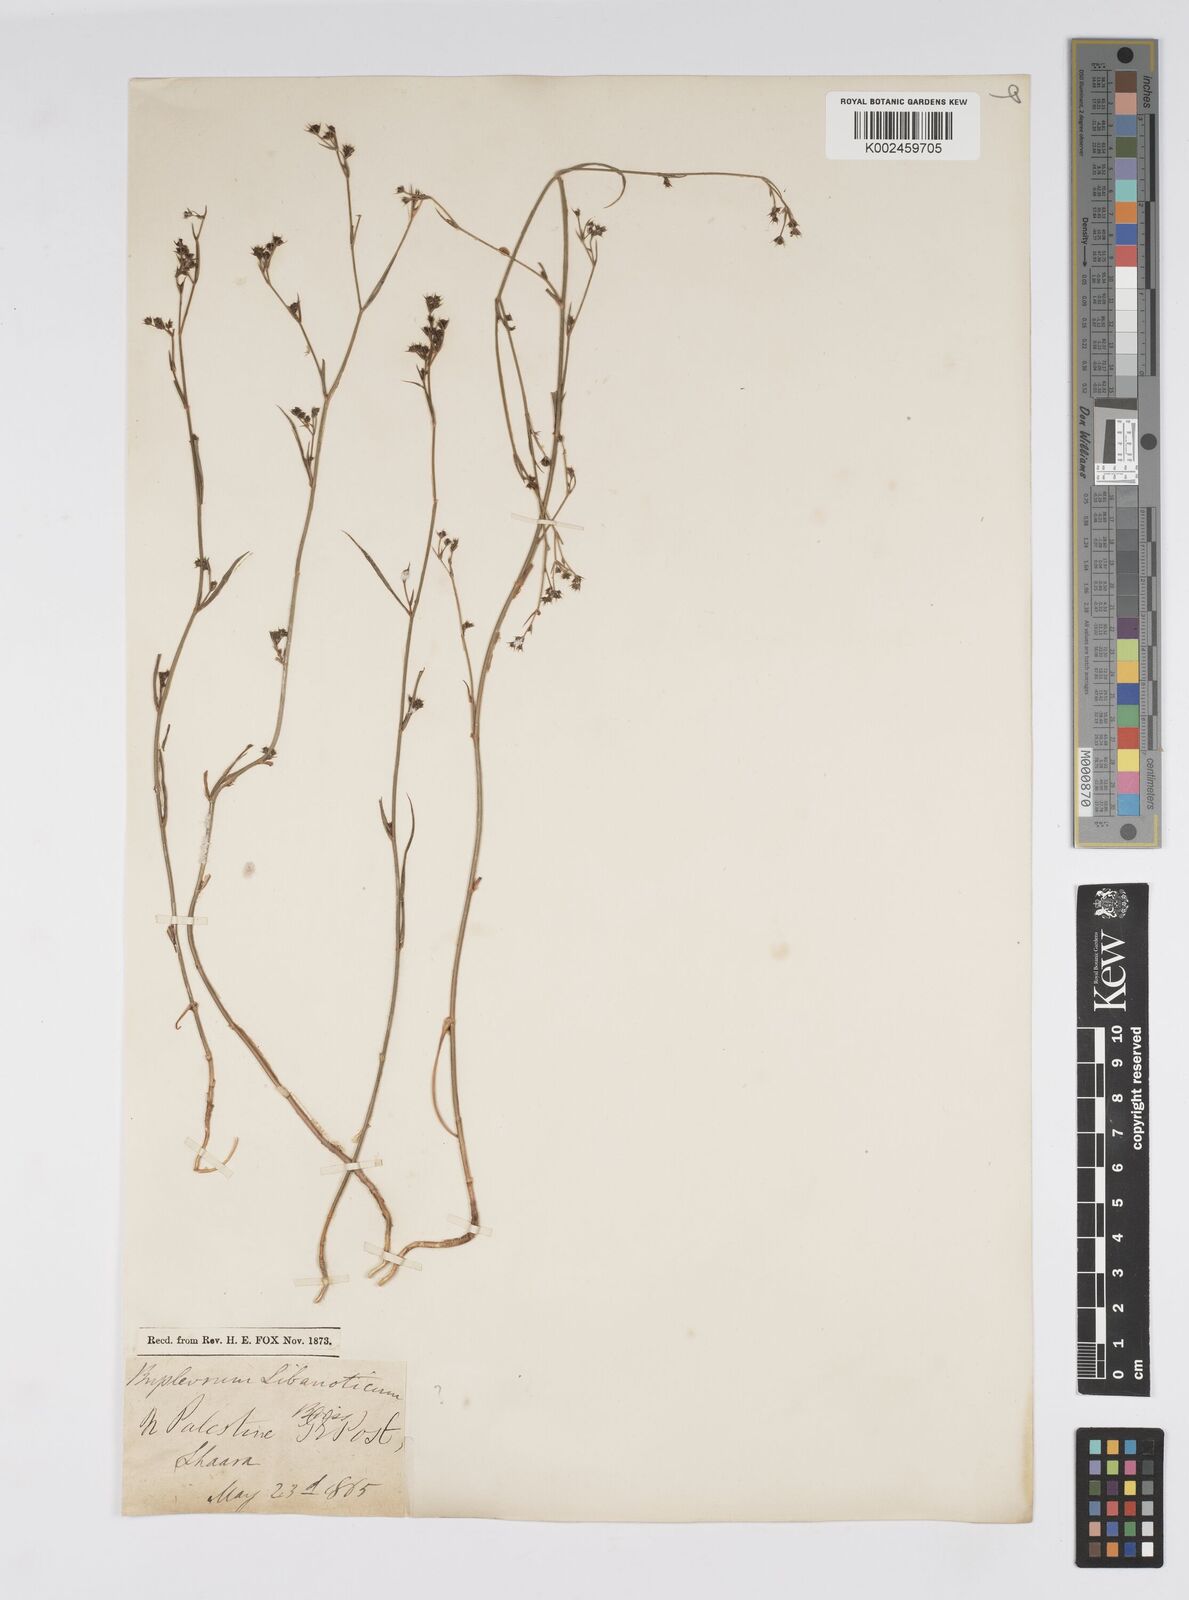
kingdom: Plantae
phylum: Tracheophyta
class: Magnoliopsida
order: Apiales
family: Apiaceae
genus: Bupleurum
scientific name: Bupleurum postii
